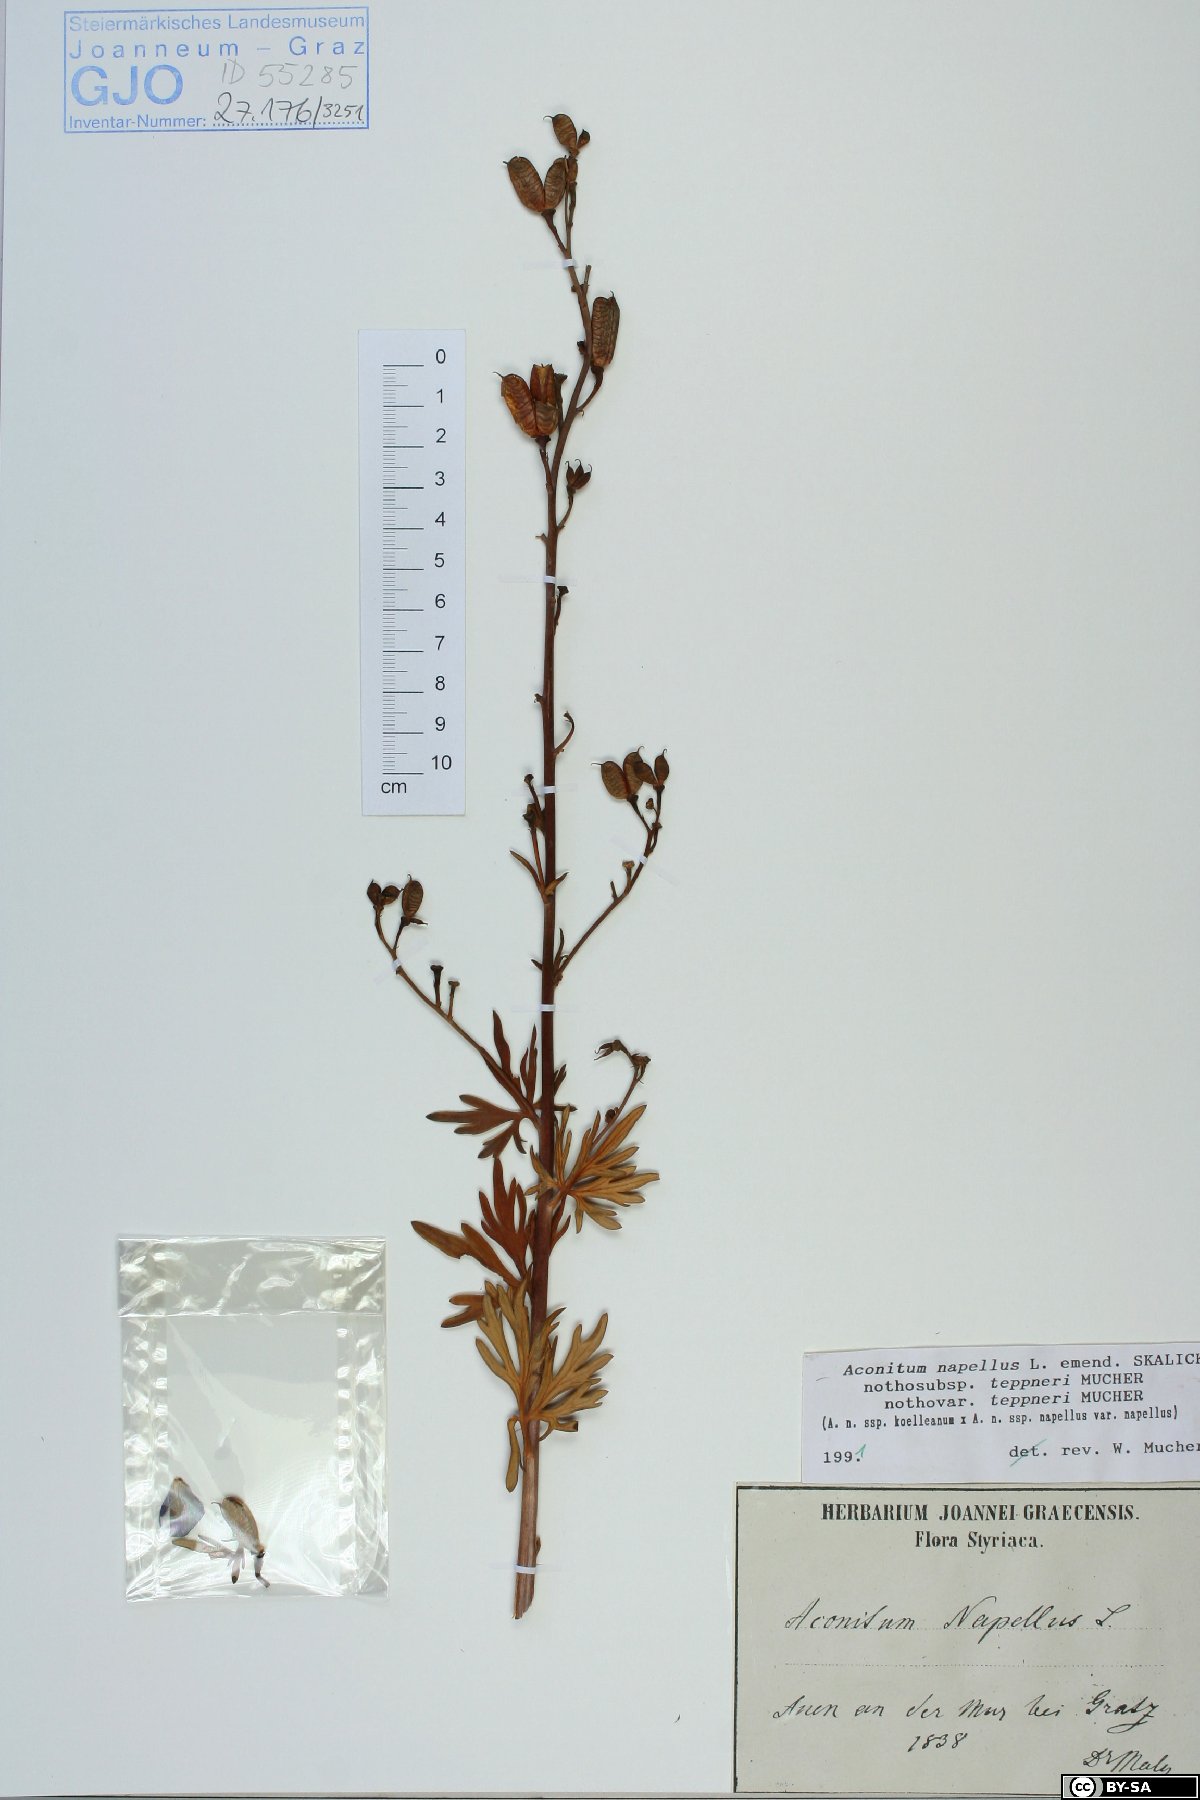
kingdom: Plantae
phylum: Tracheophyta
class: Magnoliopsida
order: Ranunculales
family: Ranunculaceae
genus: Aconitum
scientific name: Aconitum napellus
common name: Garden monkshood
